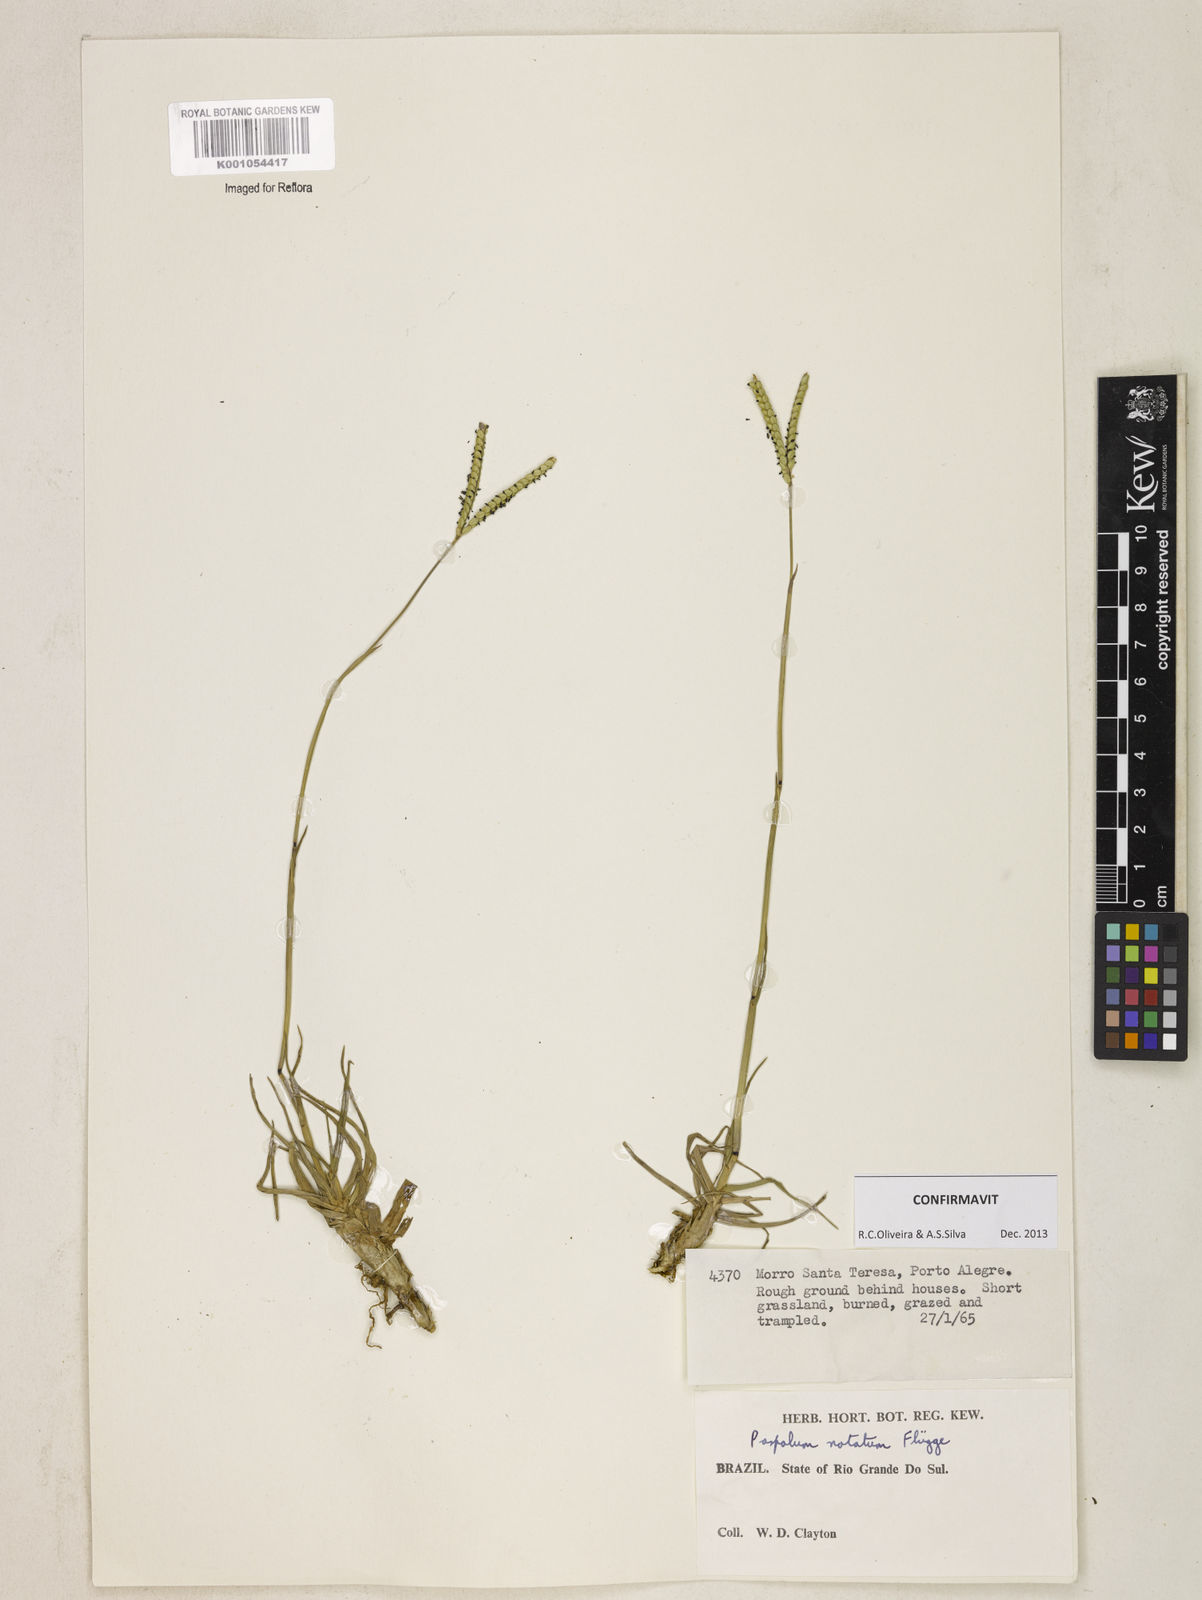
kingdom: Plantae
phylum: Tracheophyta
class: Liliopsida
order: Poales
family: Poaceae
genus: Paspalum
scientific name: Paspalum
